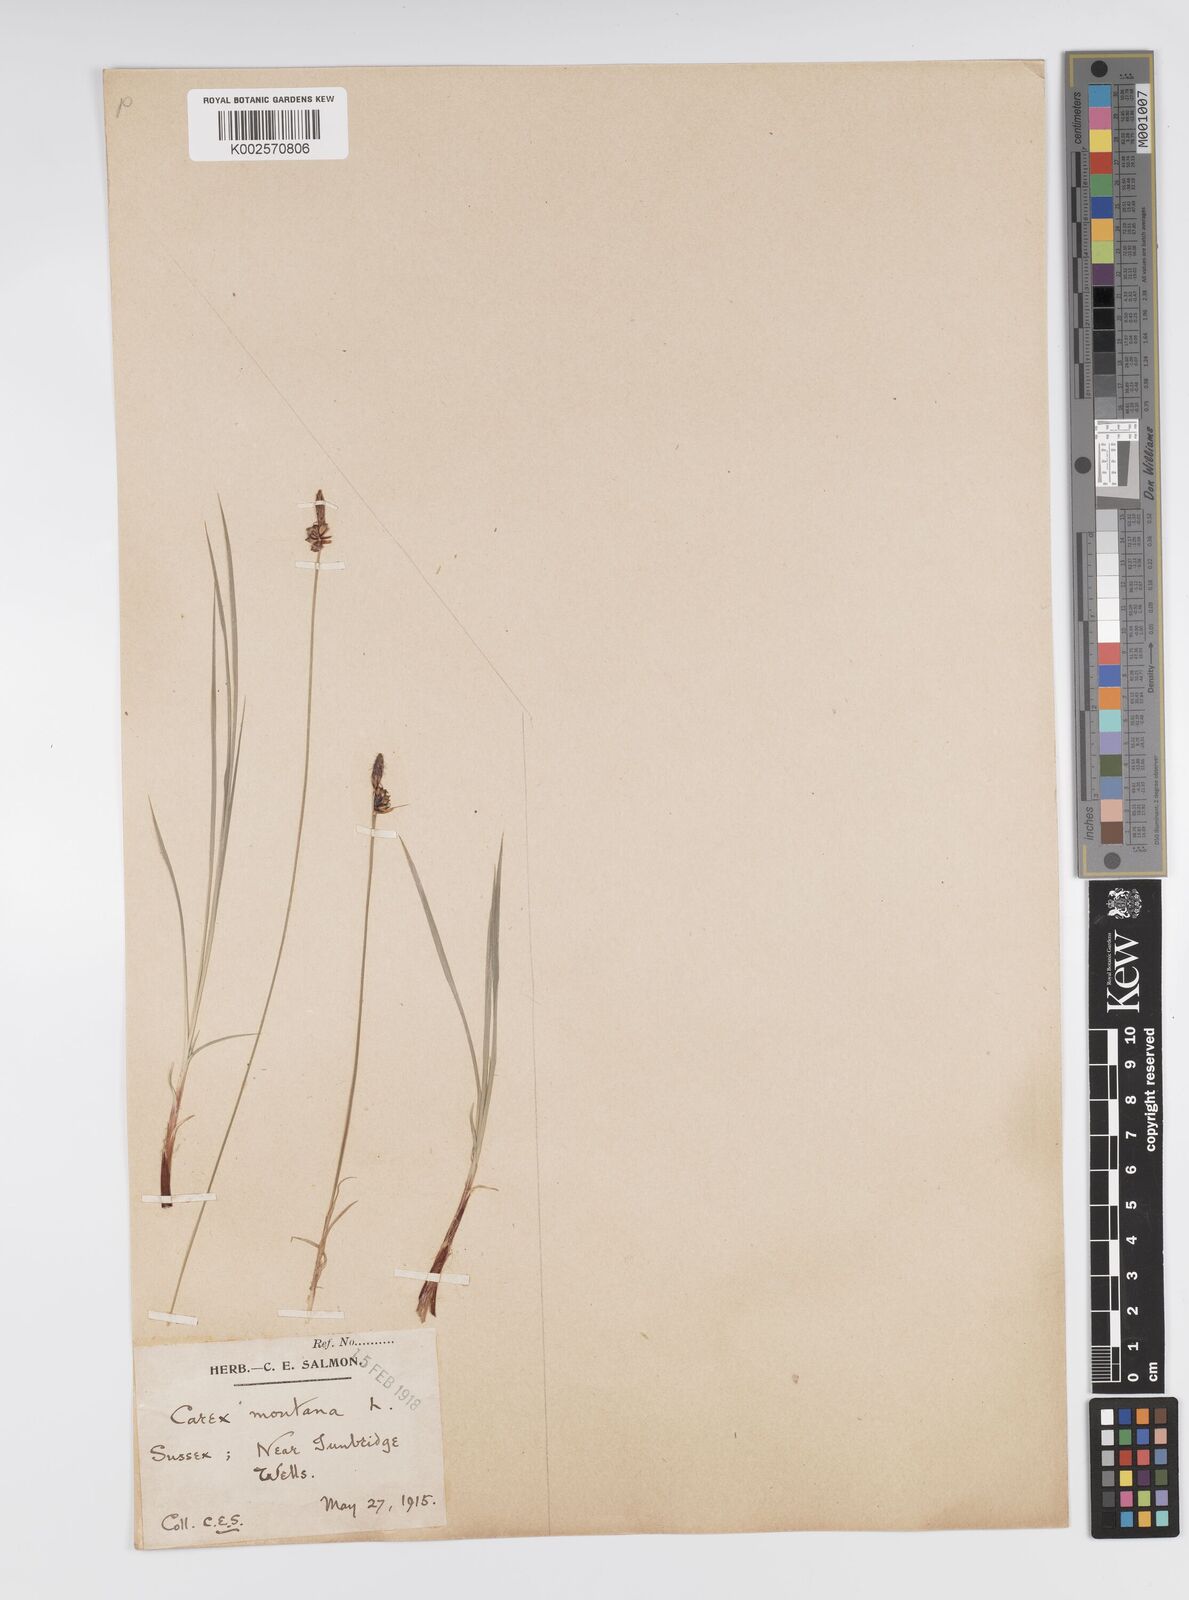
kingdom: Plantae
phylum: Tracheophyta
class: Liliopsida
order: Poales
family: Cyperaceae
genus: Carex
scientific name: Carex montana
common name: Soft-leaved sedge
